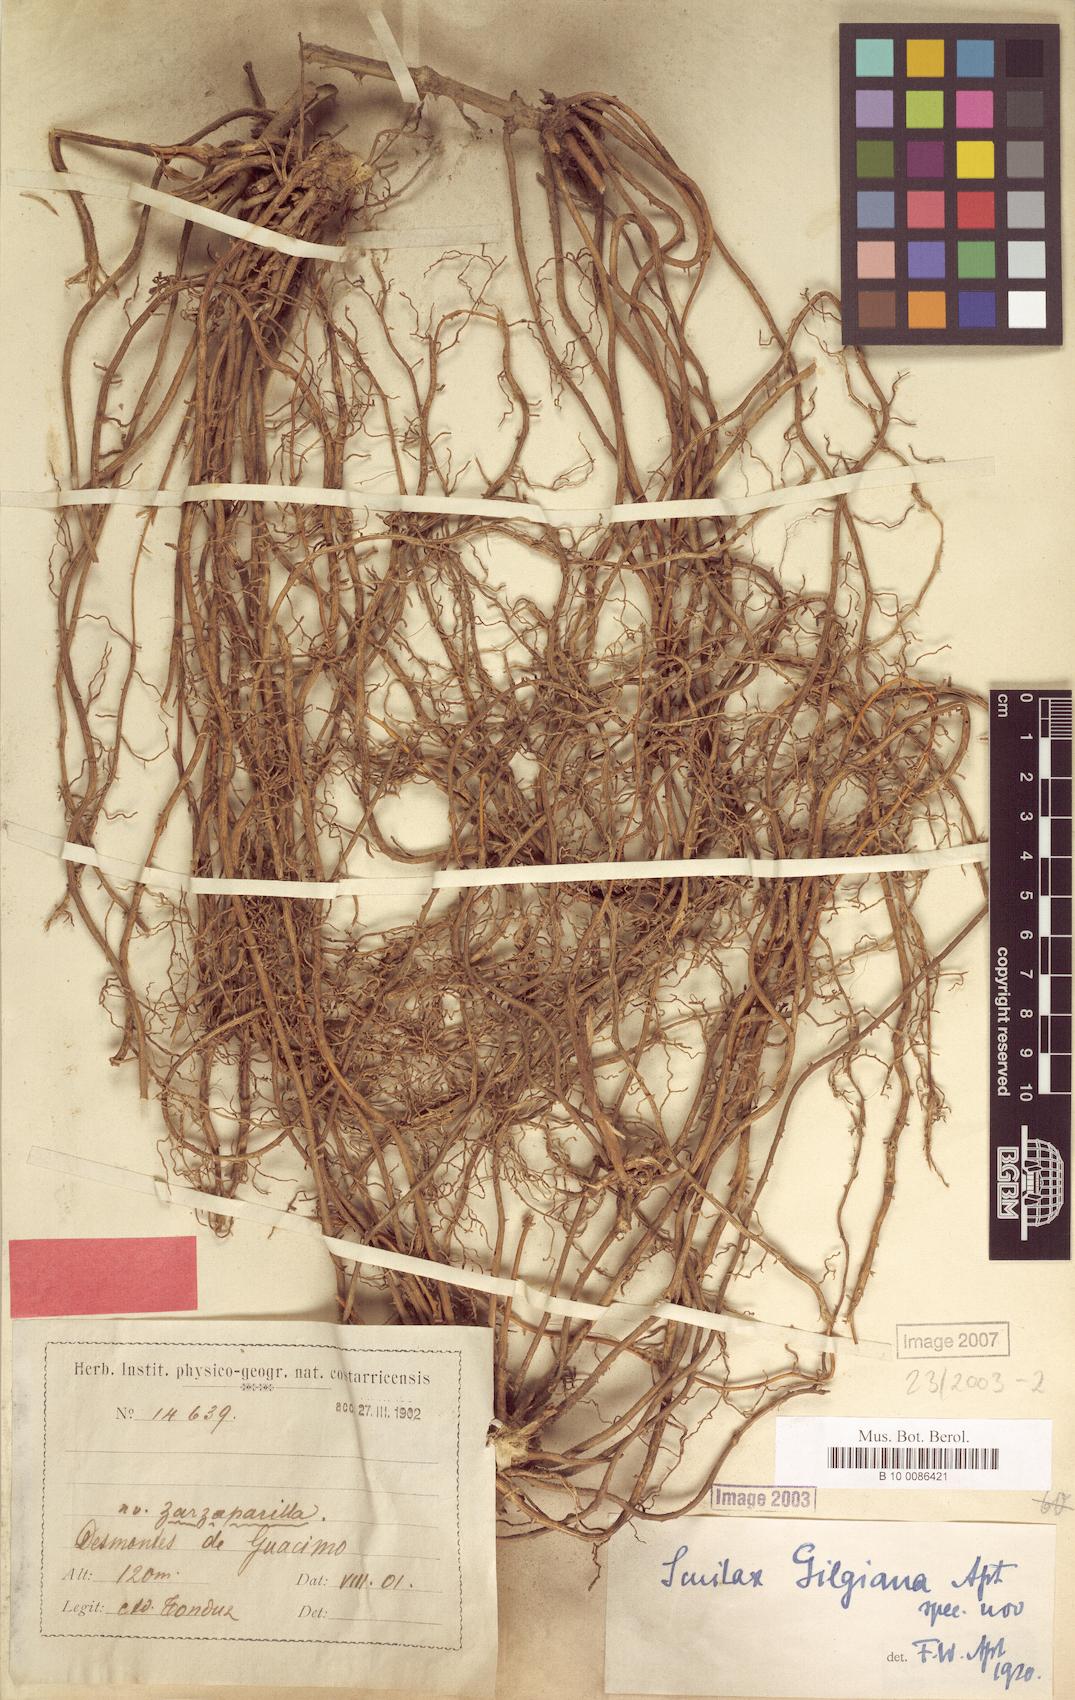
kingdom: Plantae
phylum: Tracheophyta
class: Liliopsida
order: Liliales
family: Smilacaceae
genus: Smilax
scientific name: Smilax officinalis
